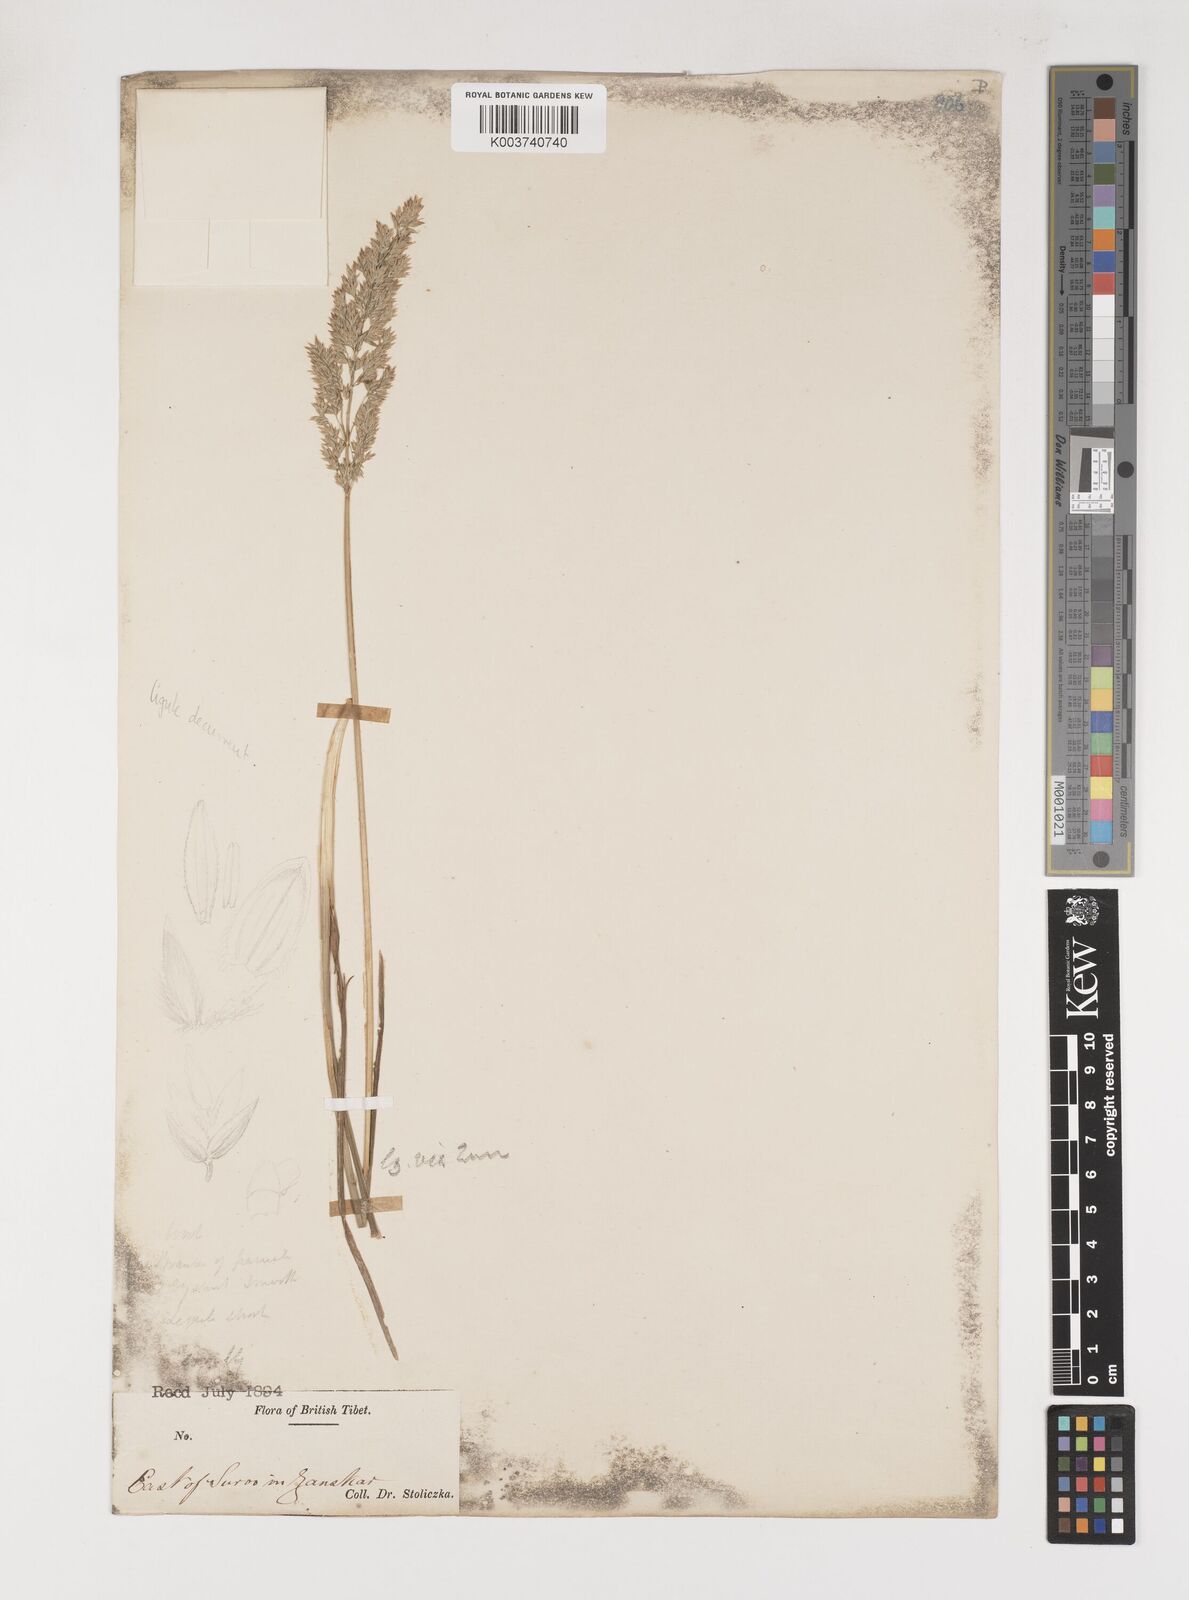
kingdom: Plantae
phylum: Tracheophyta
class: Liliopsida
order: Poales
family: Poaceae
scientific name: Poaceae
